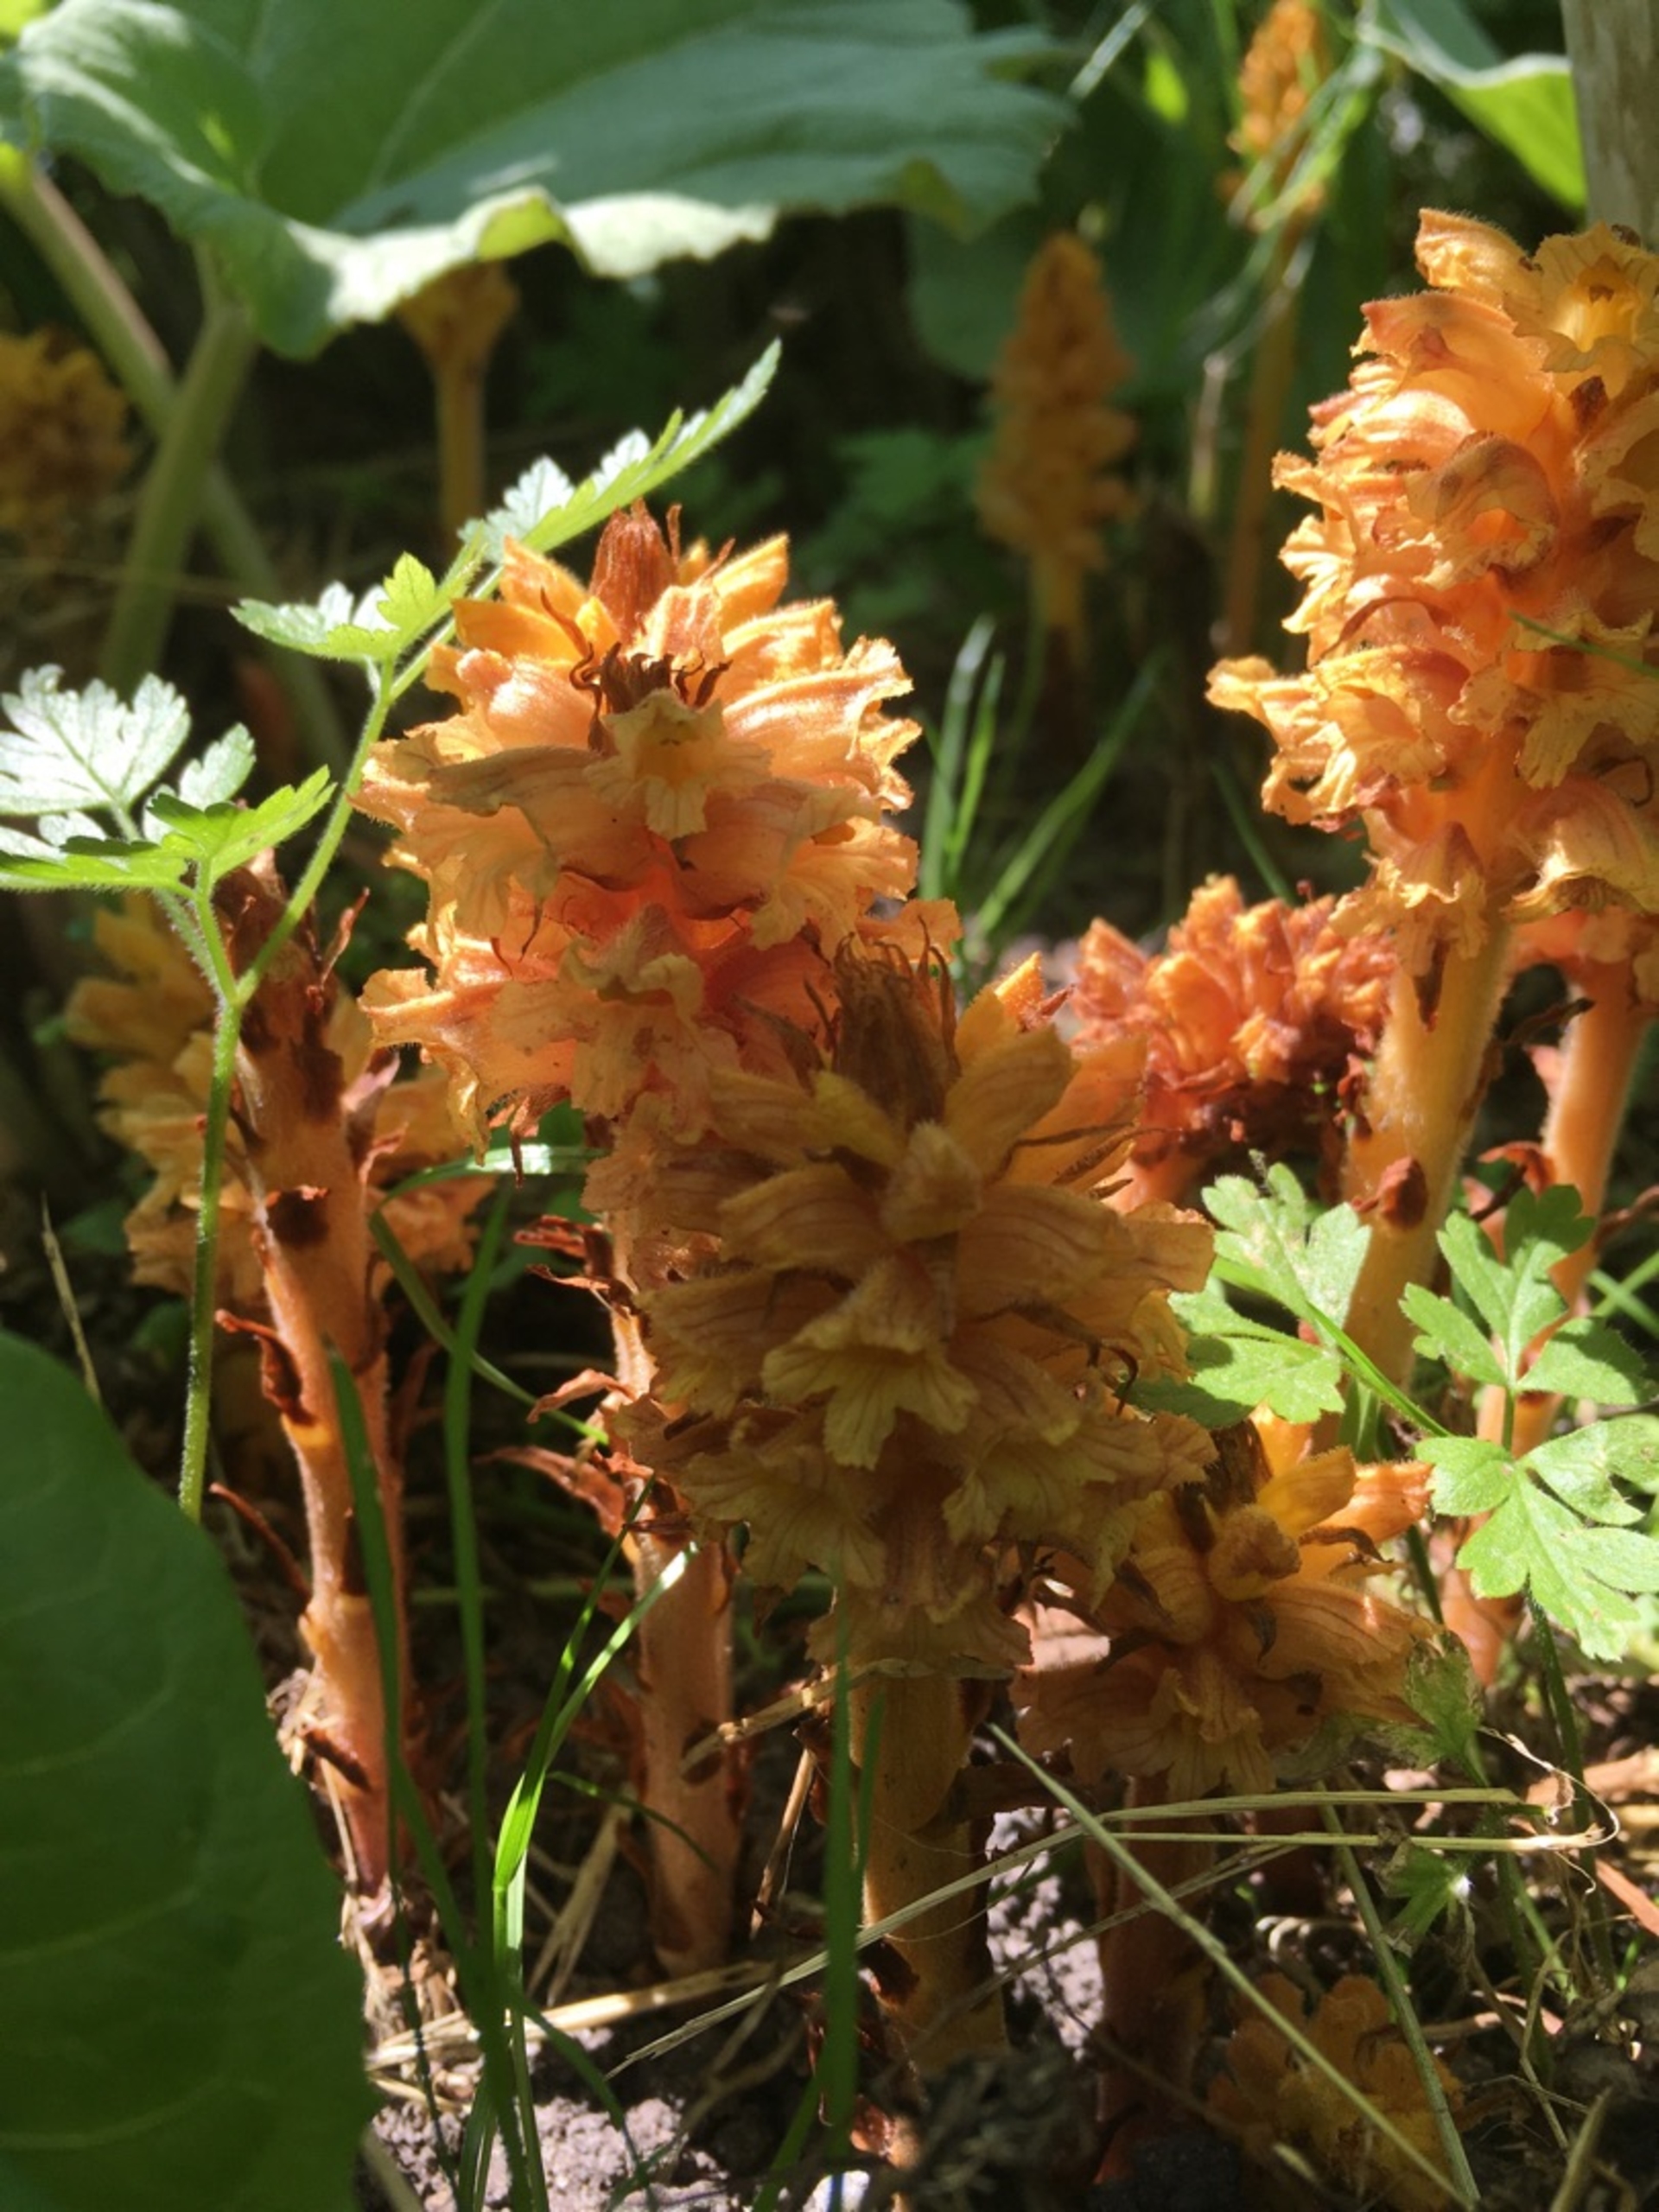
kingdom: Plantae
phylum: Tracheophyta
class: Magnoliopsida
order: Lamiales
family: Orobanchaceae
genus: Orobanche
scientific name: Orobanche flava
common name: Gul gyvelkvæler
